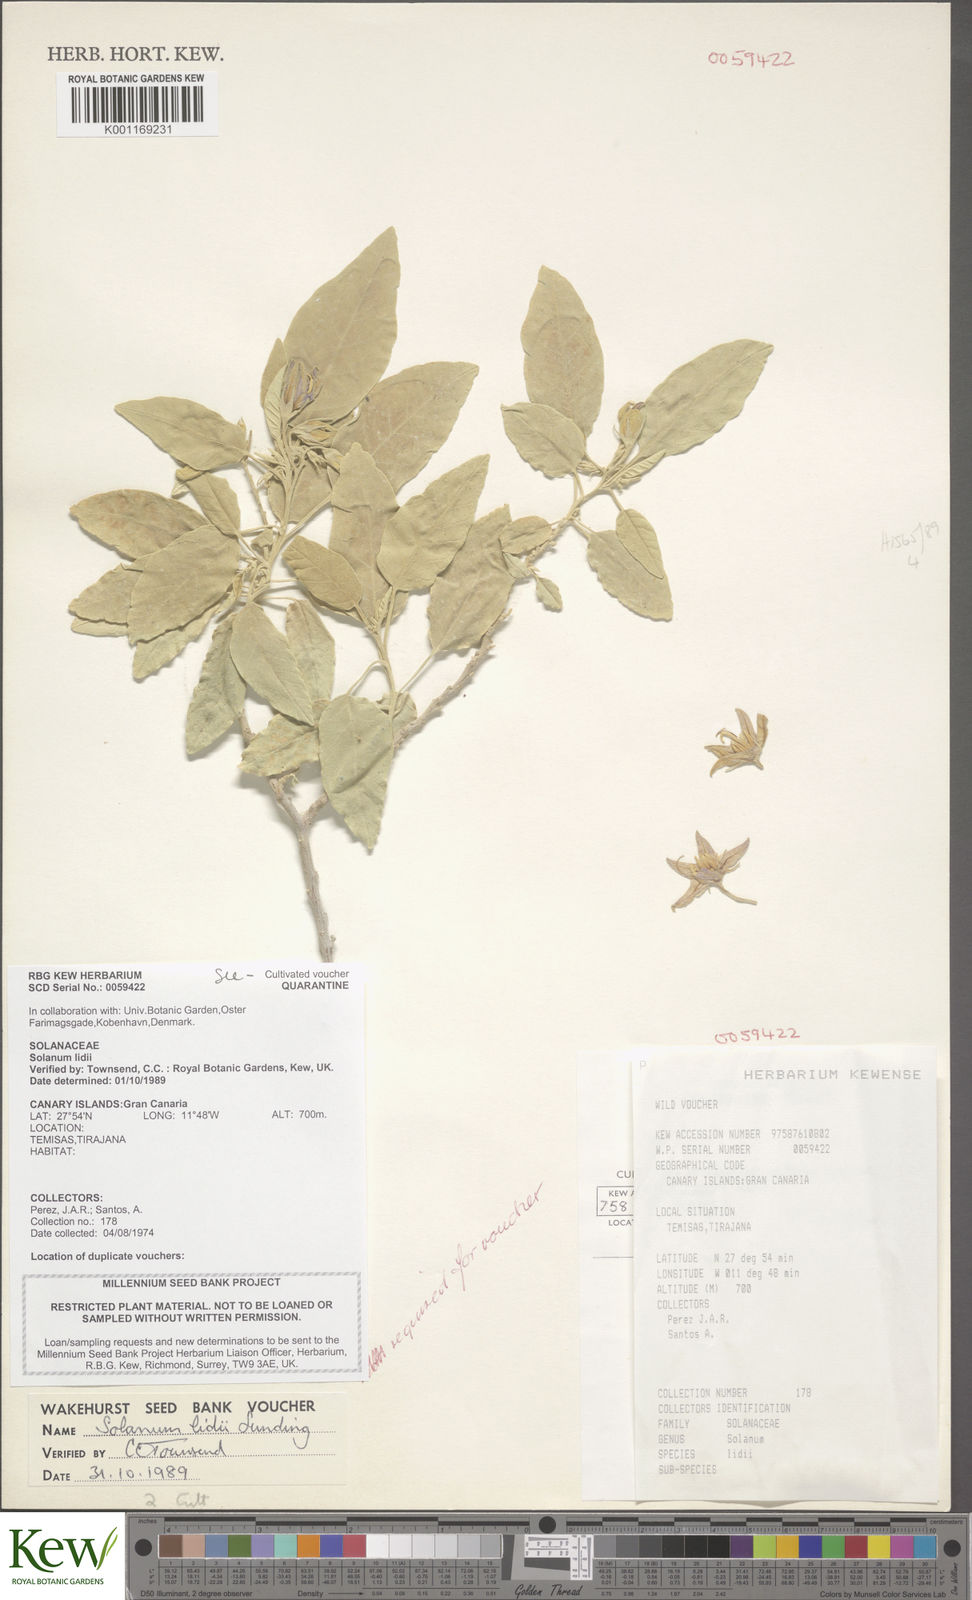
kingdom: Plantae
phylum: Tracheophyta
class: Magnoliopsida
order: Solanales
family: Solanaceae
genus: Solanum
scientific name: Solanum lidii
